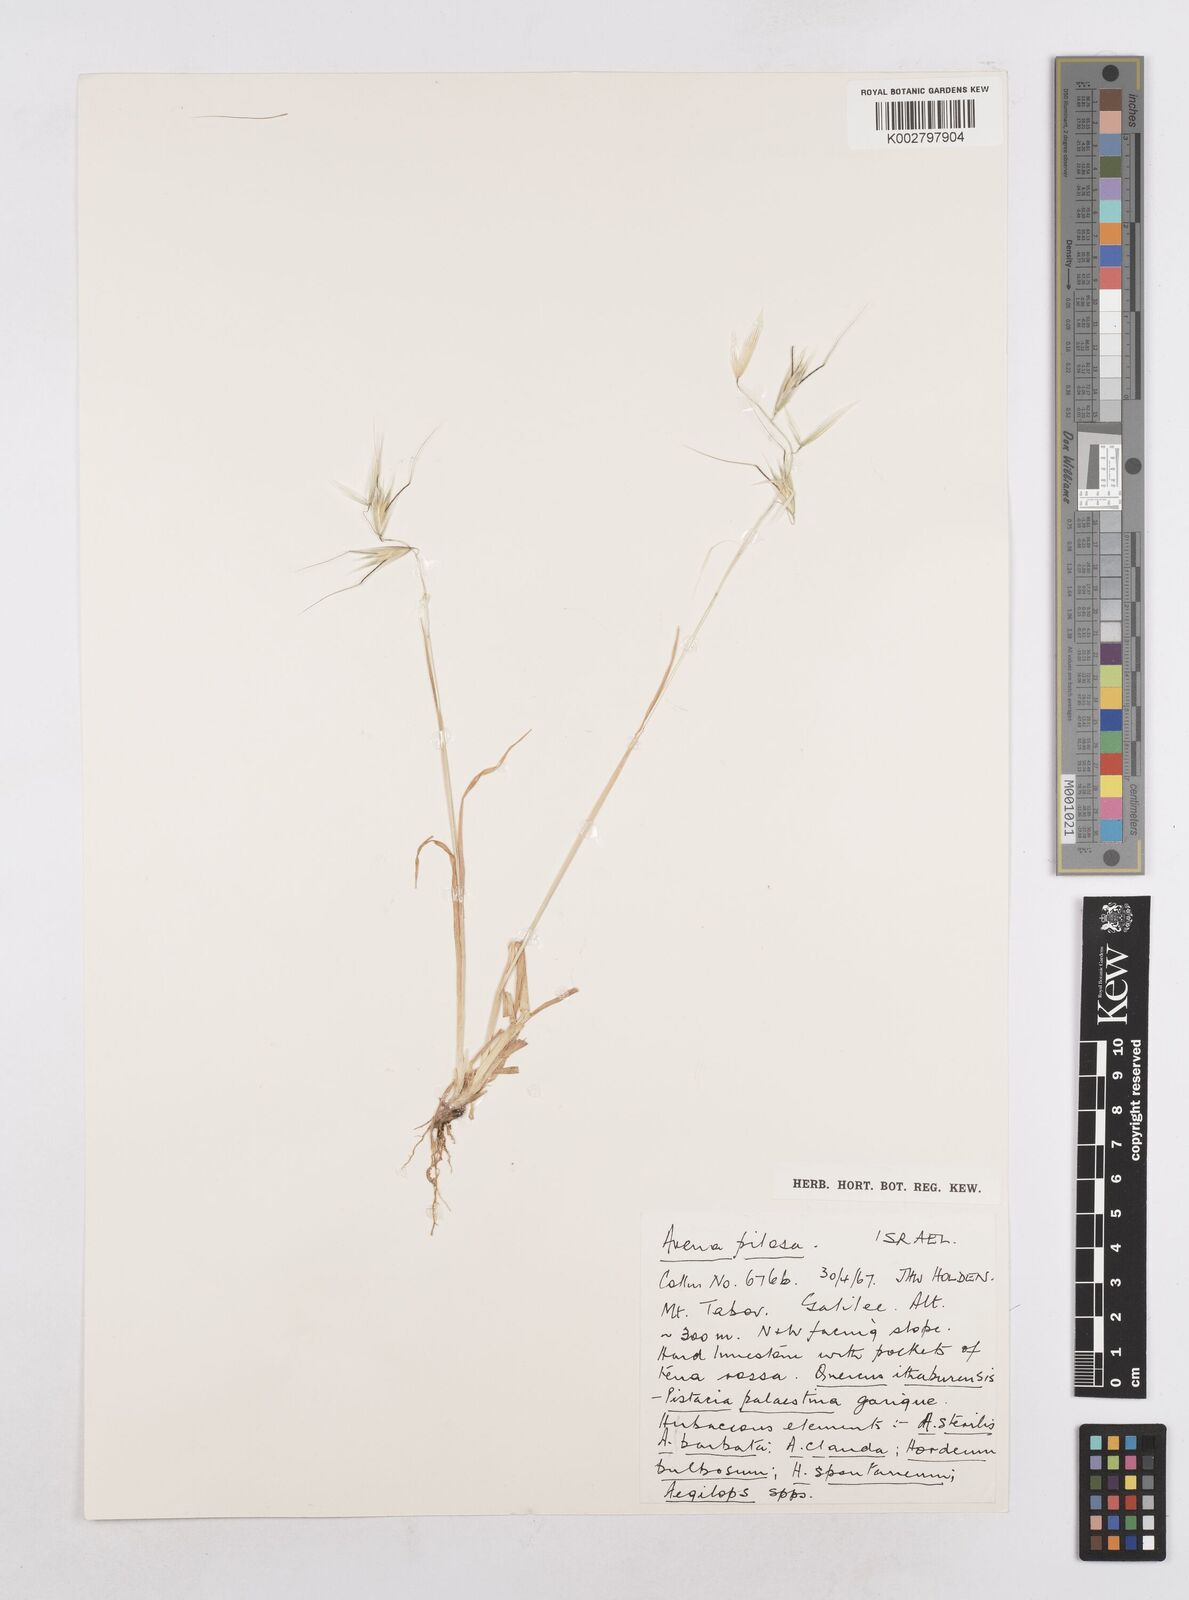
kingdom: Plantae
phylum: Tracheophyta
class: Liliopsida
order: Poales
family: Poaceae
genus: Avena
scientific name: Avena
